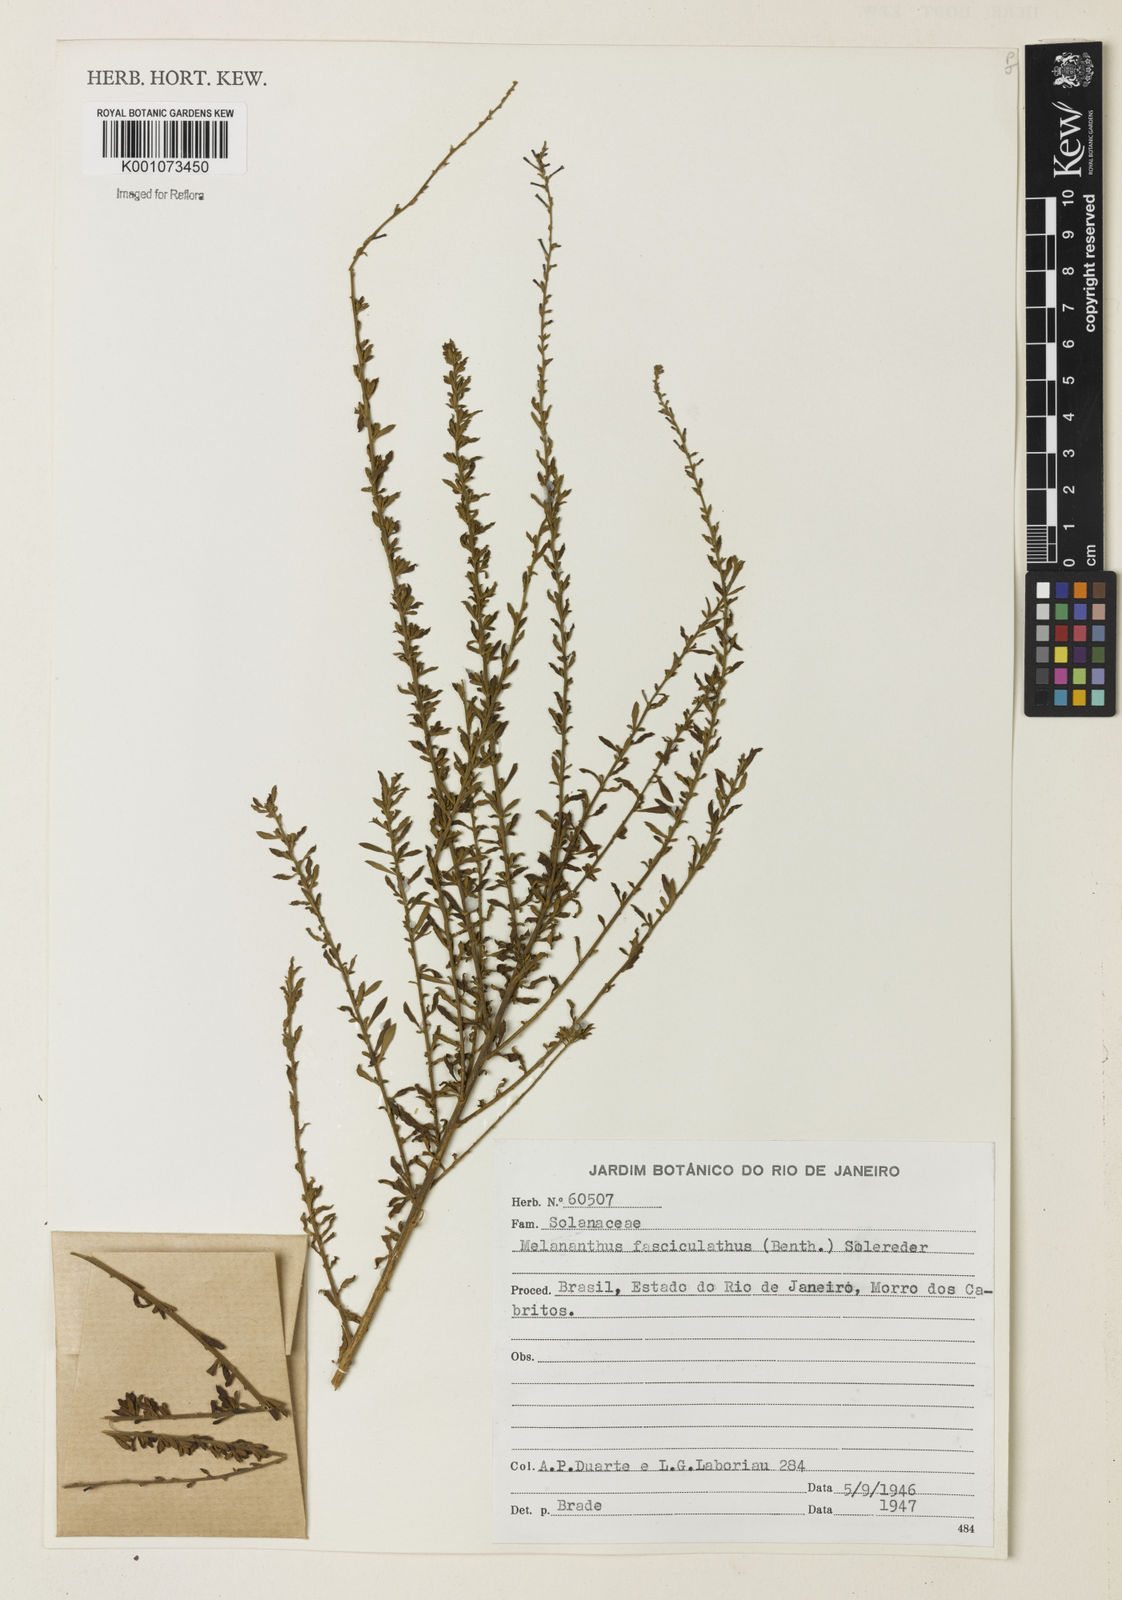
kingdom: Plantae
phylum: Tracheophyta
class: Magnoliopsida
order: Solanales
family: Solanaceae
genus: Melananthus
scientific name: Melananthus fasciculatus
